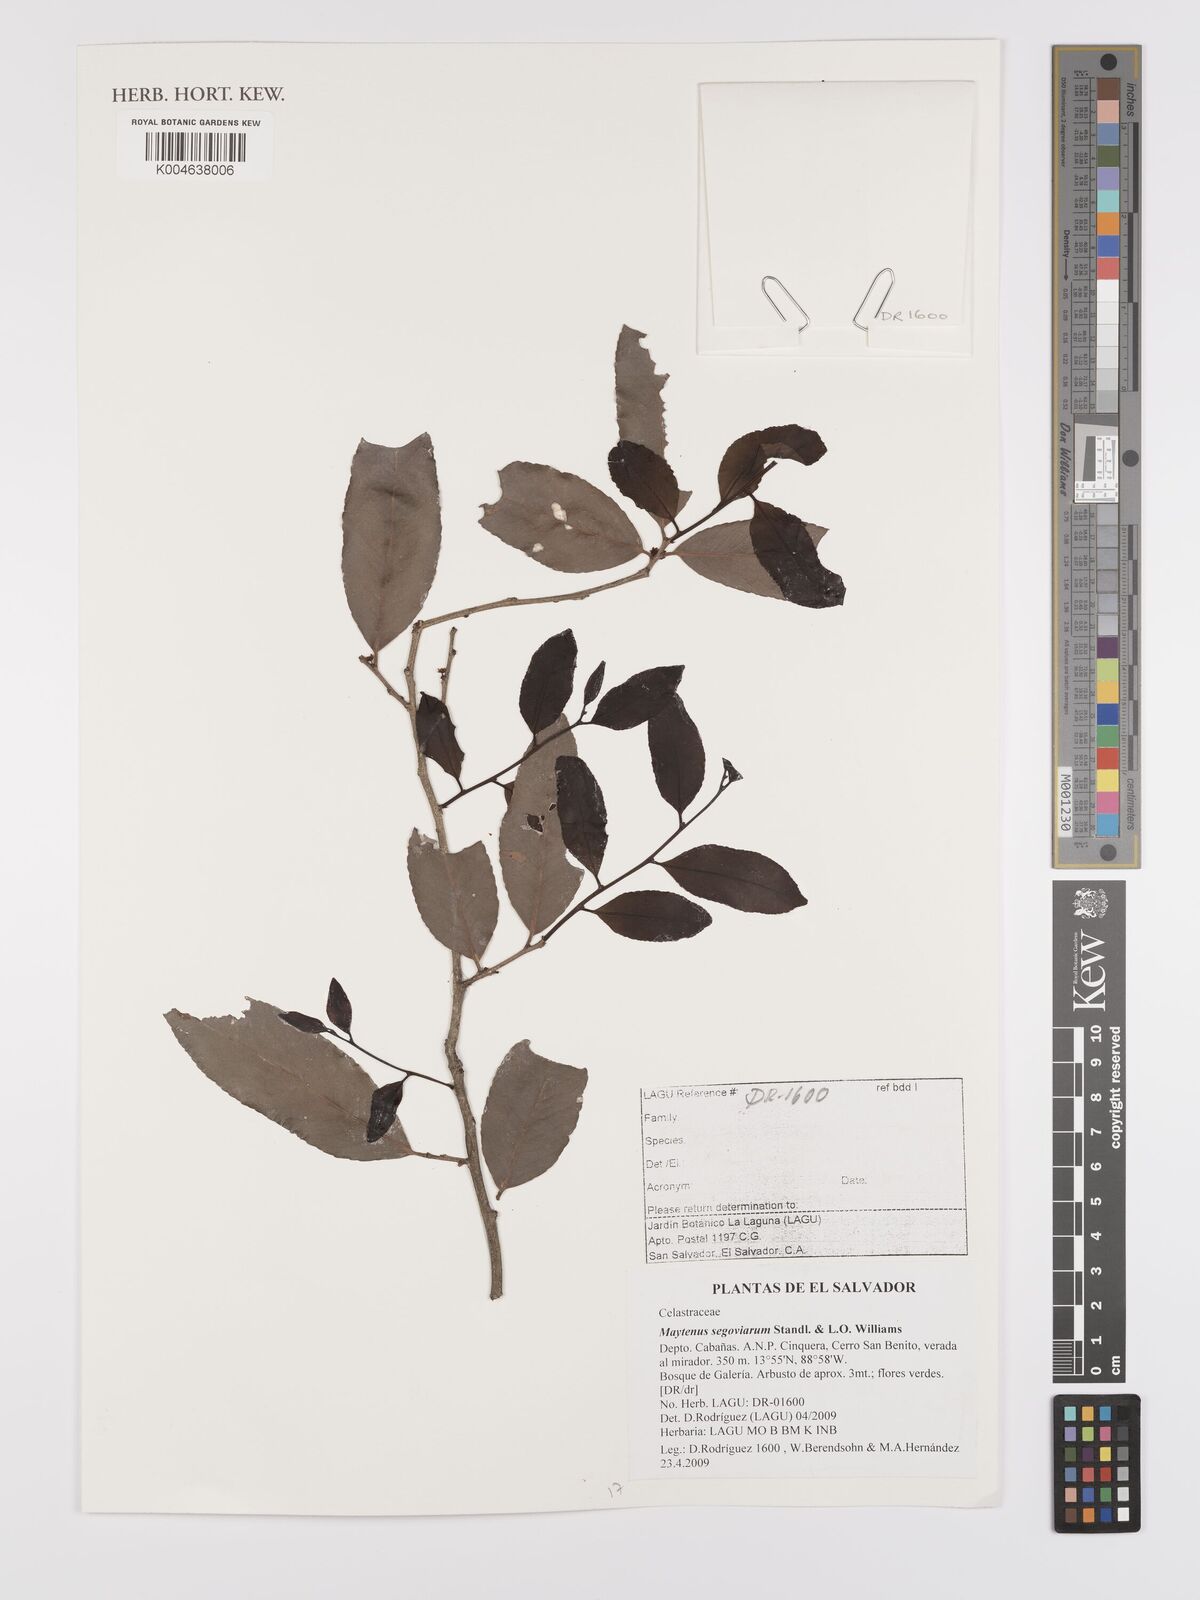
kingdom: Plantae
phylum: Tracheophyta
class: Magnoliopsida
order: Celastrales
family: Celastraceae
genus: Monteverdia
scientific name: Monteverdia segoviarum
